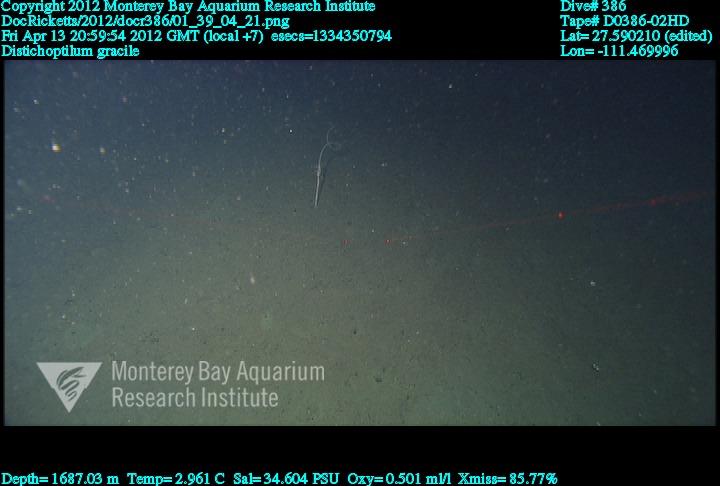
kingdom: Animalia
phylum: Cnidaria
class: Anthozoa
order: Scleralcyonacea
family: Protoptilidae
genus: Distichoptilum
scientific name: Distichoptilum gracile
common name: Slender sea pen
